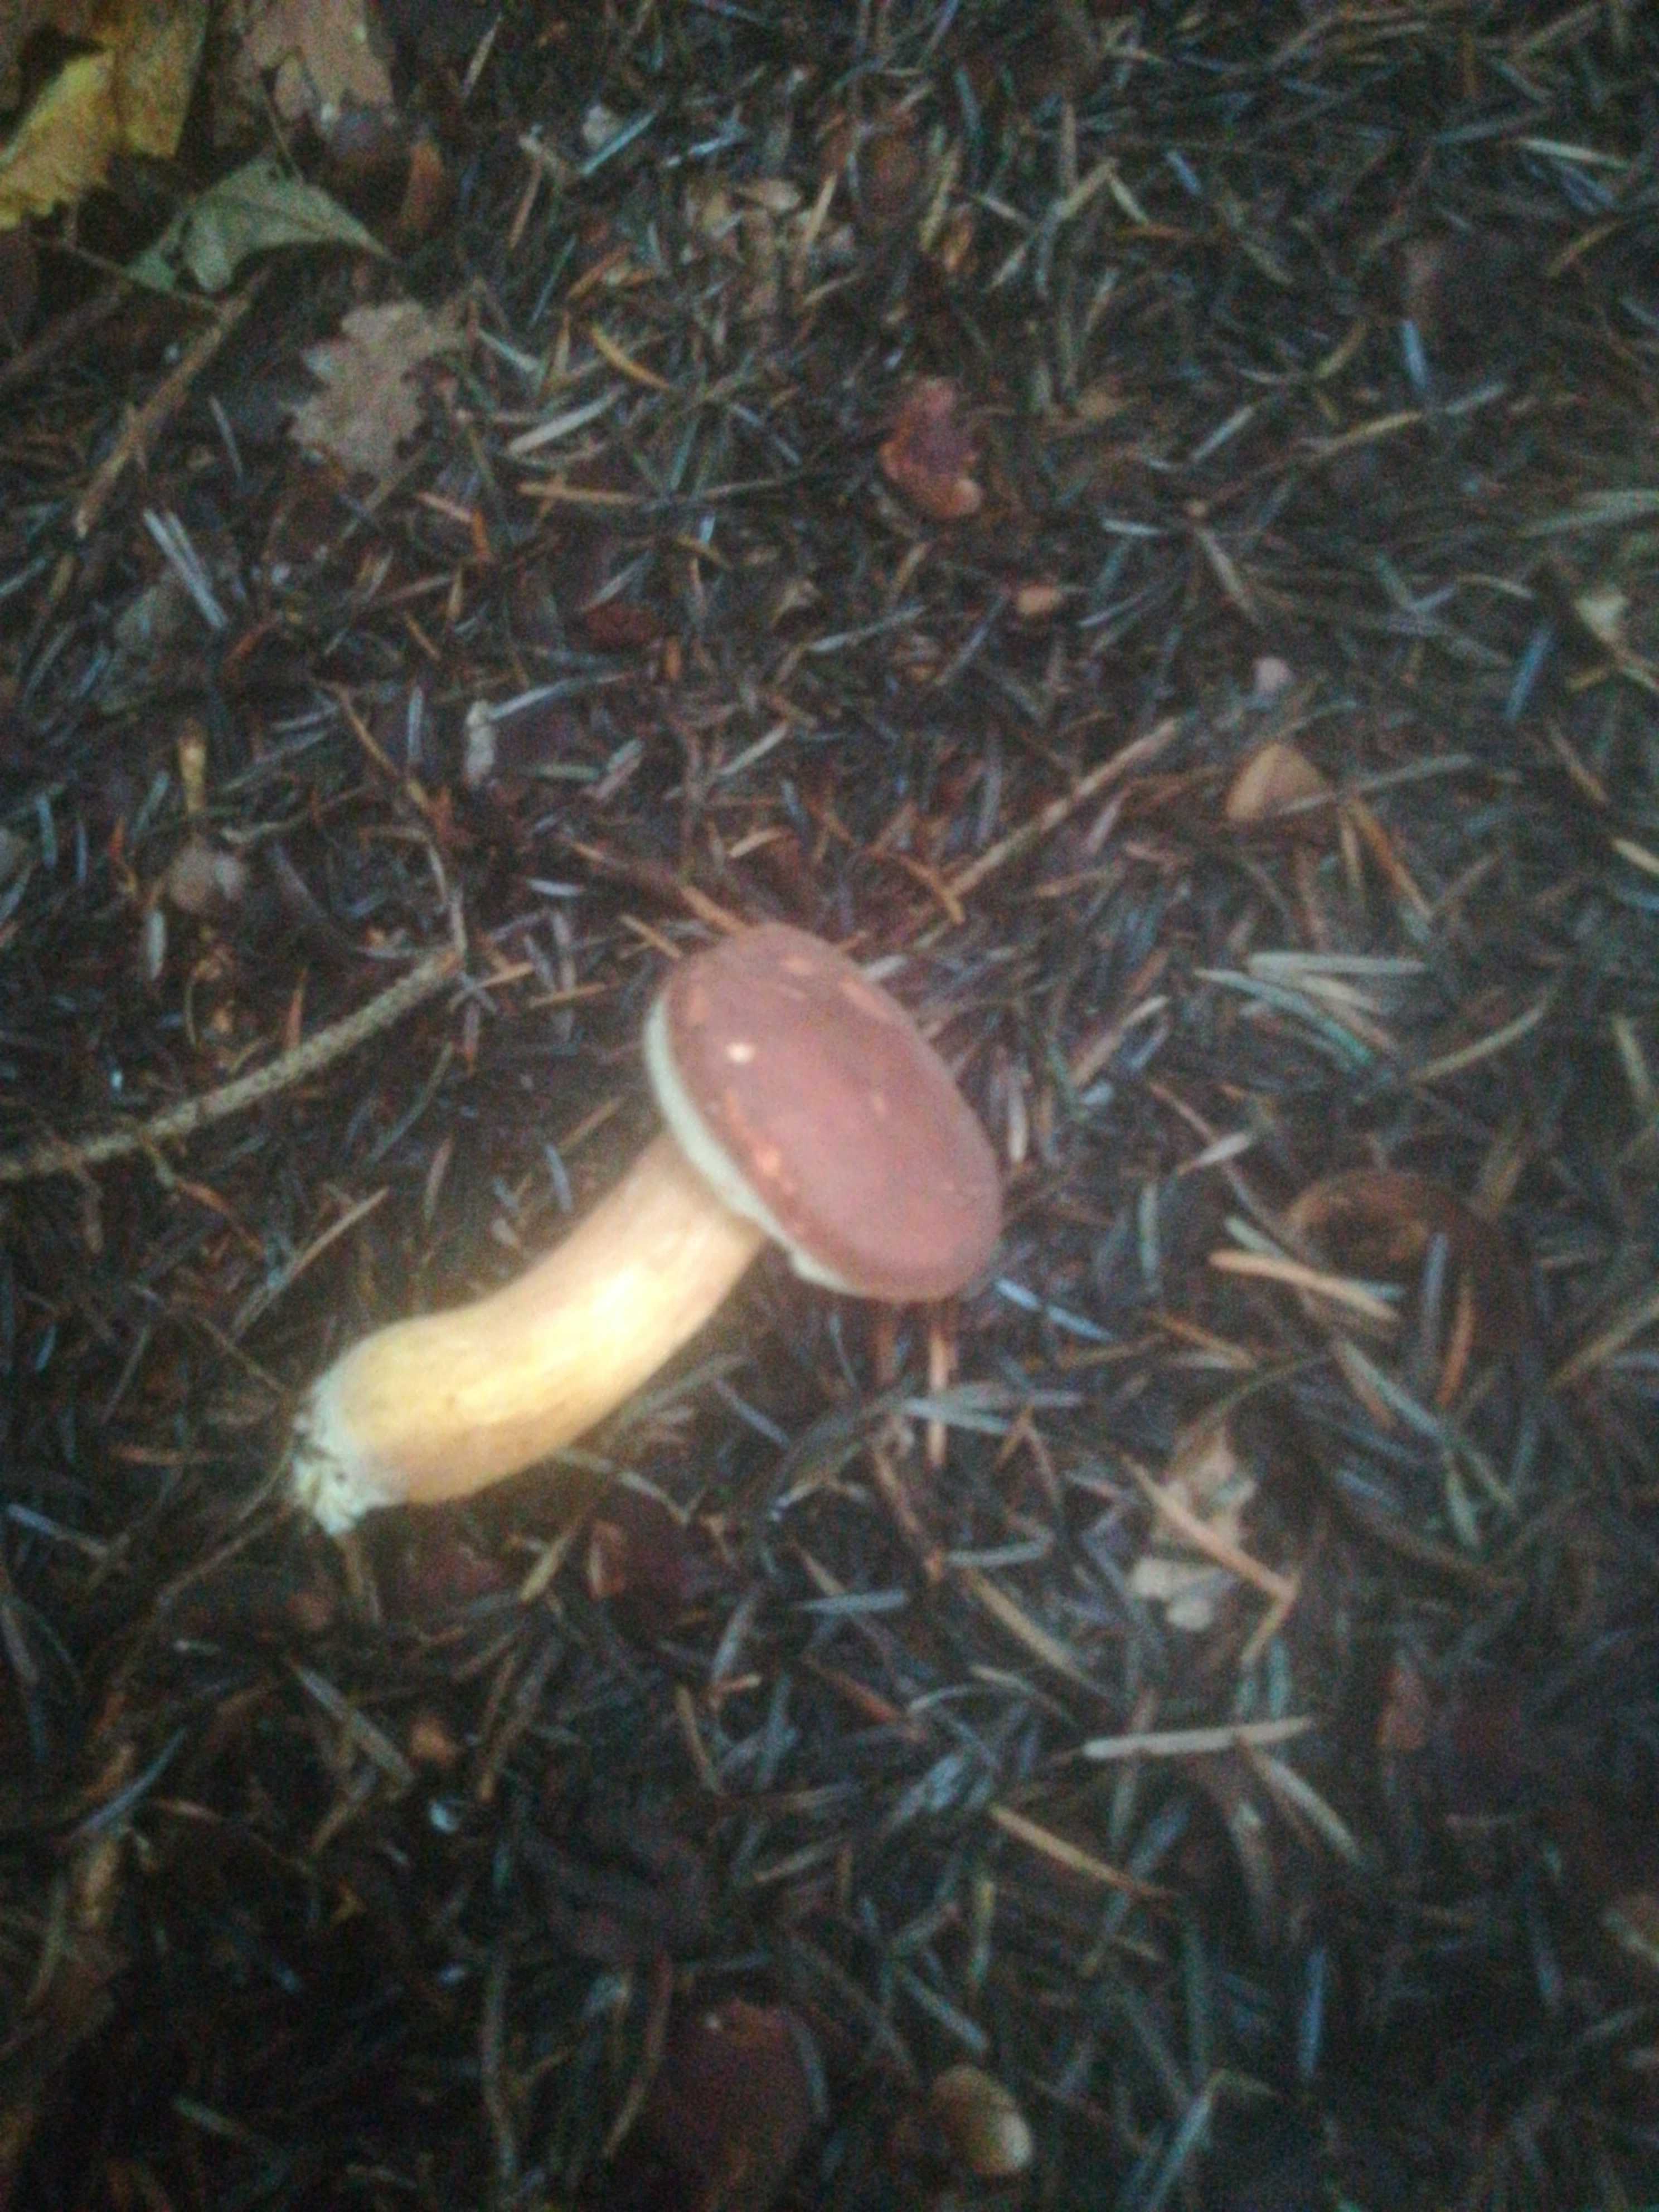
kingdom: Fungi
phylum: Basidiomycota
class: Agaricomycetes
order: Boletales
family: Boletaceae
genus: Imleria
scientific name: Imleria badia
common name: brunstokket rørhat
